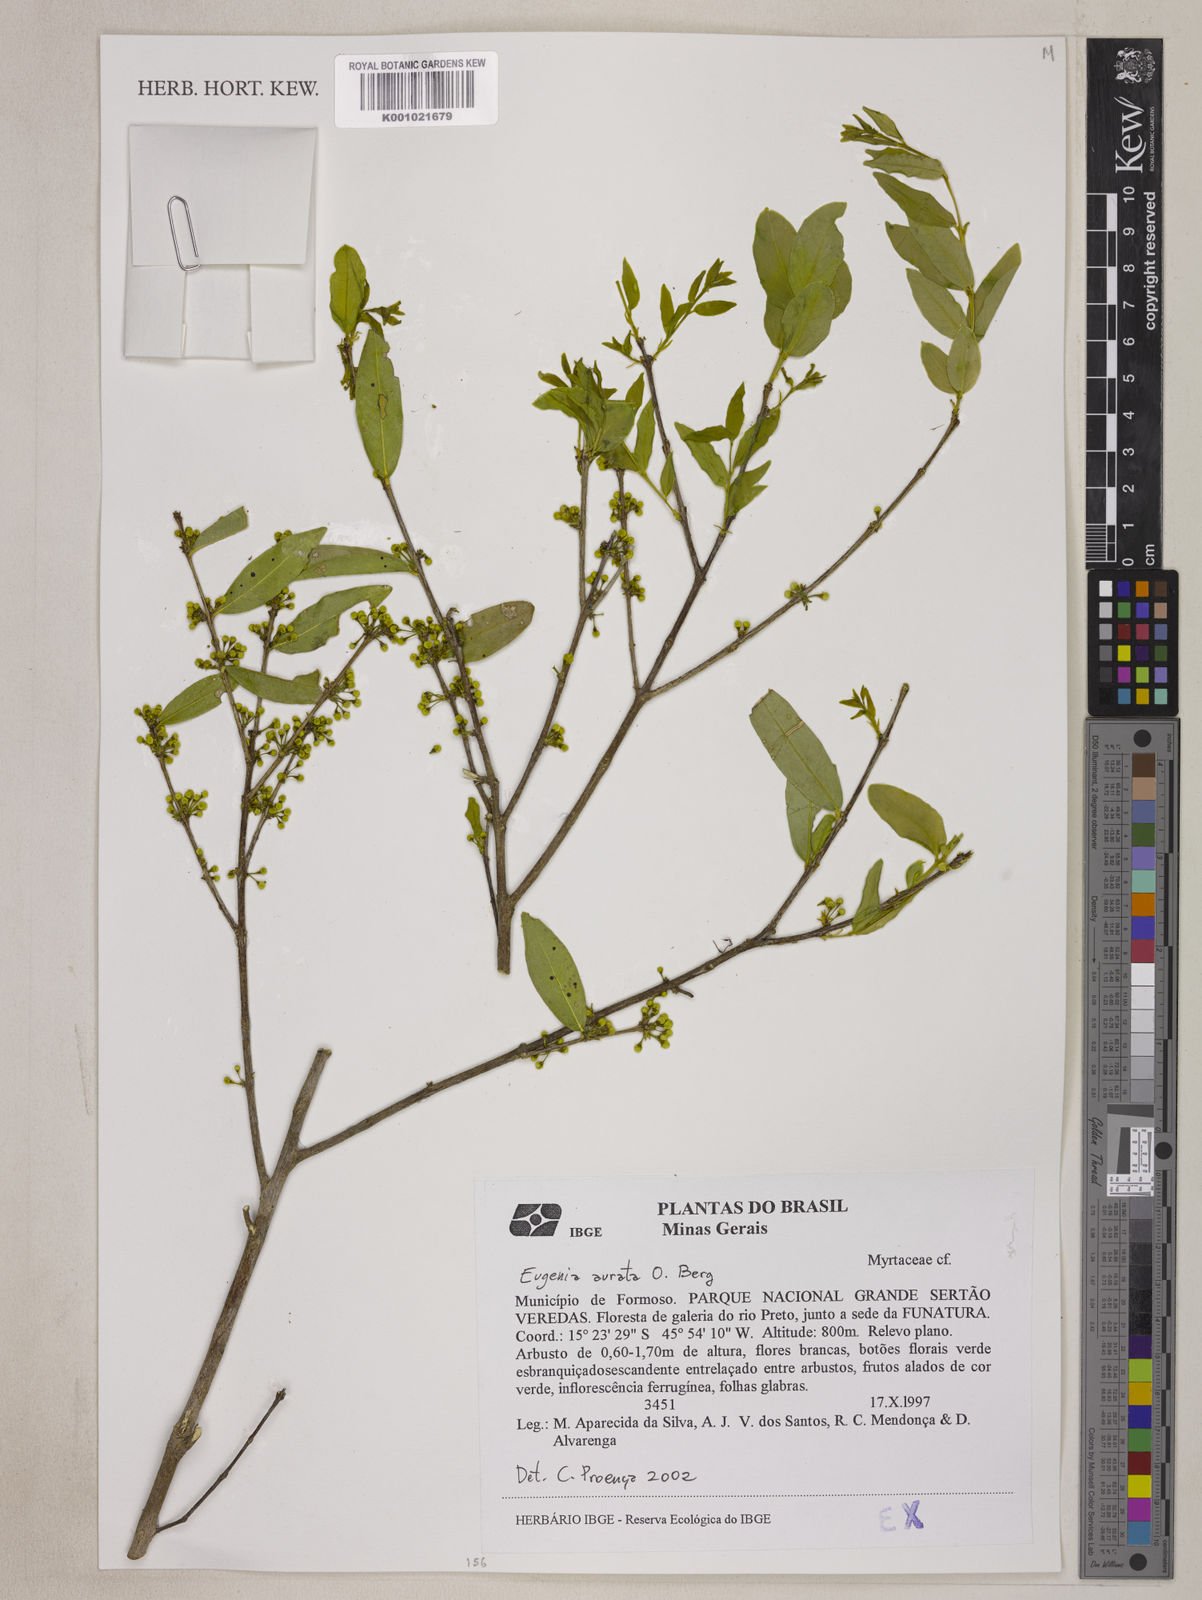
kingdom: Plantae
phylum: Tracheophyta
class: Magnoliopsida
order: Myrtales
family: Myrtaceae
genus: Eugenia
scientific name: Eugenia aurata
